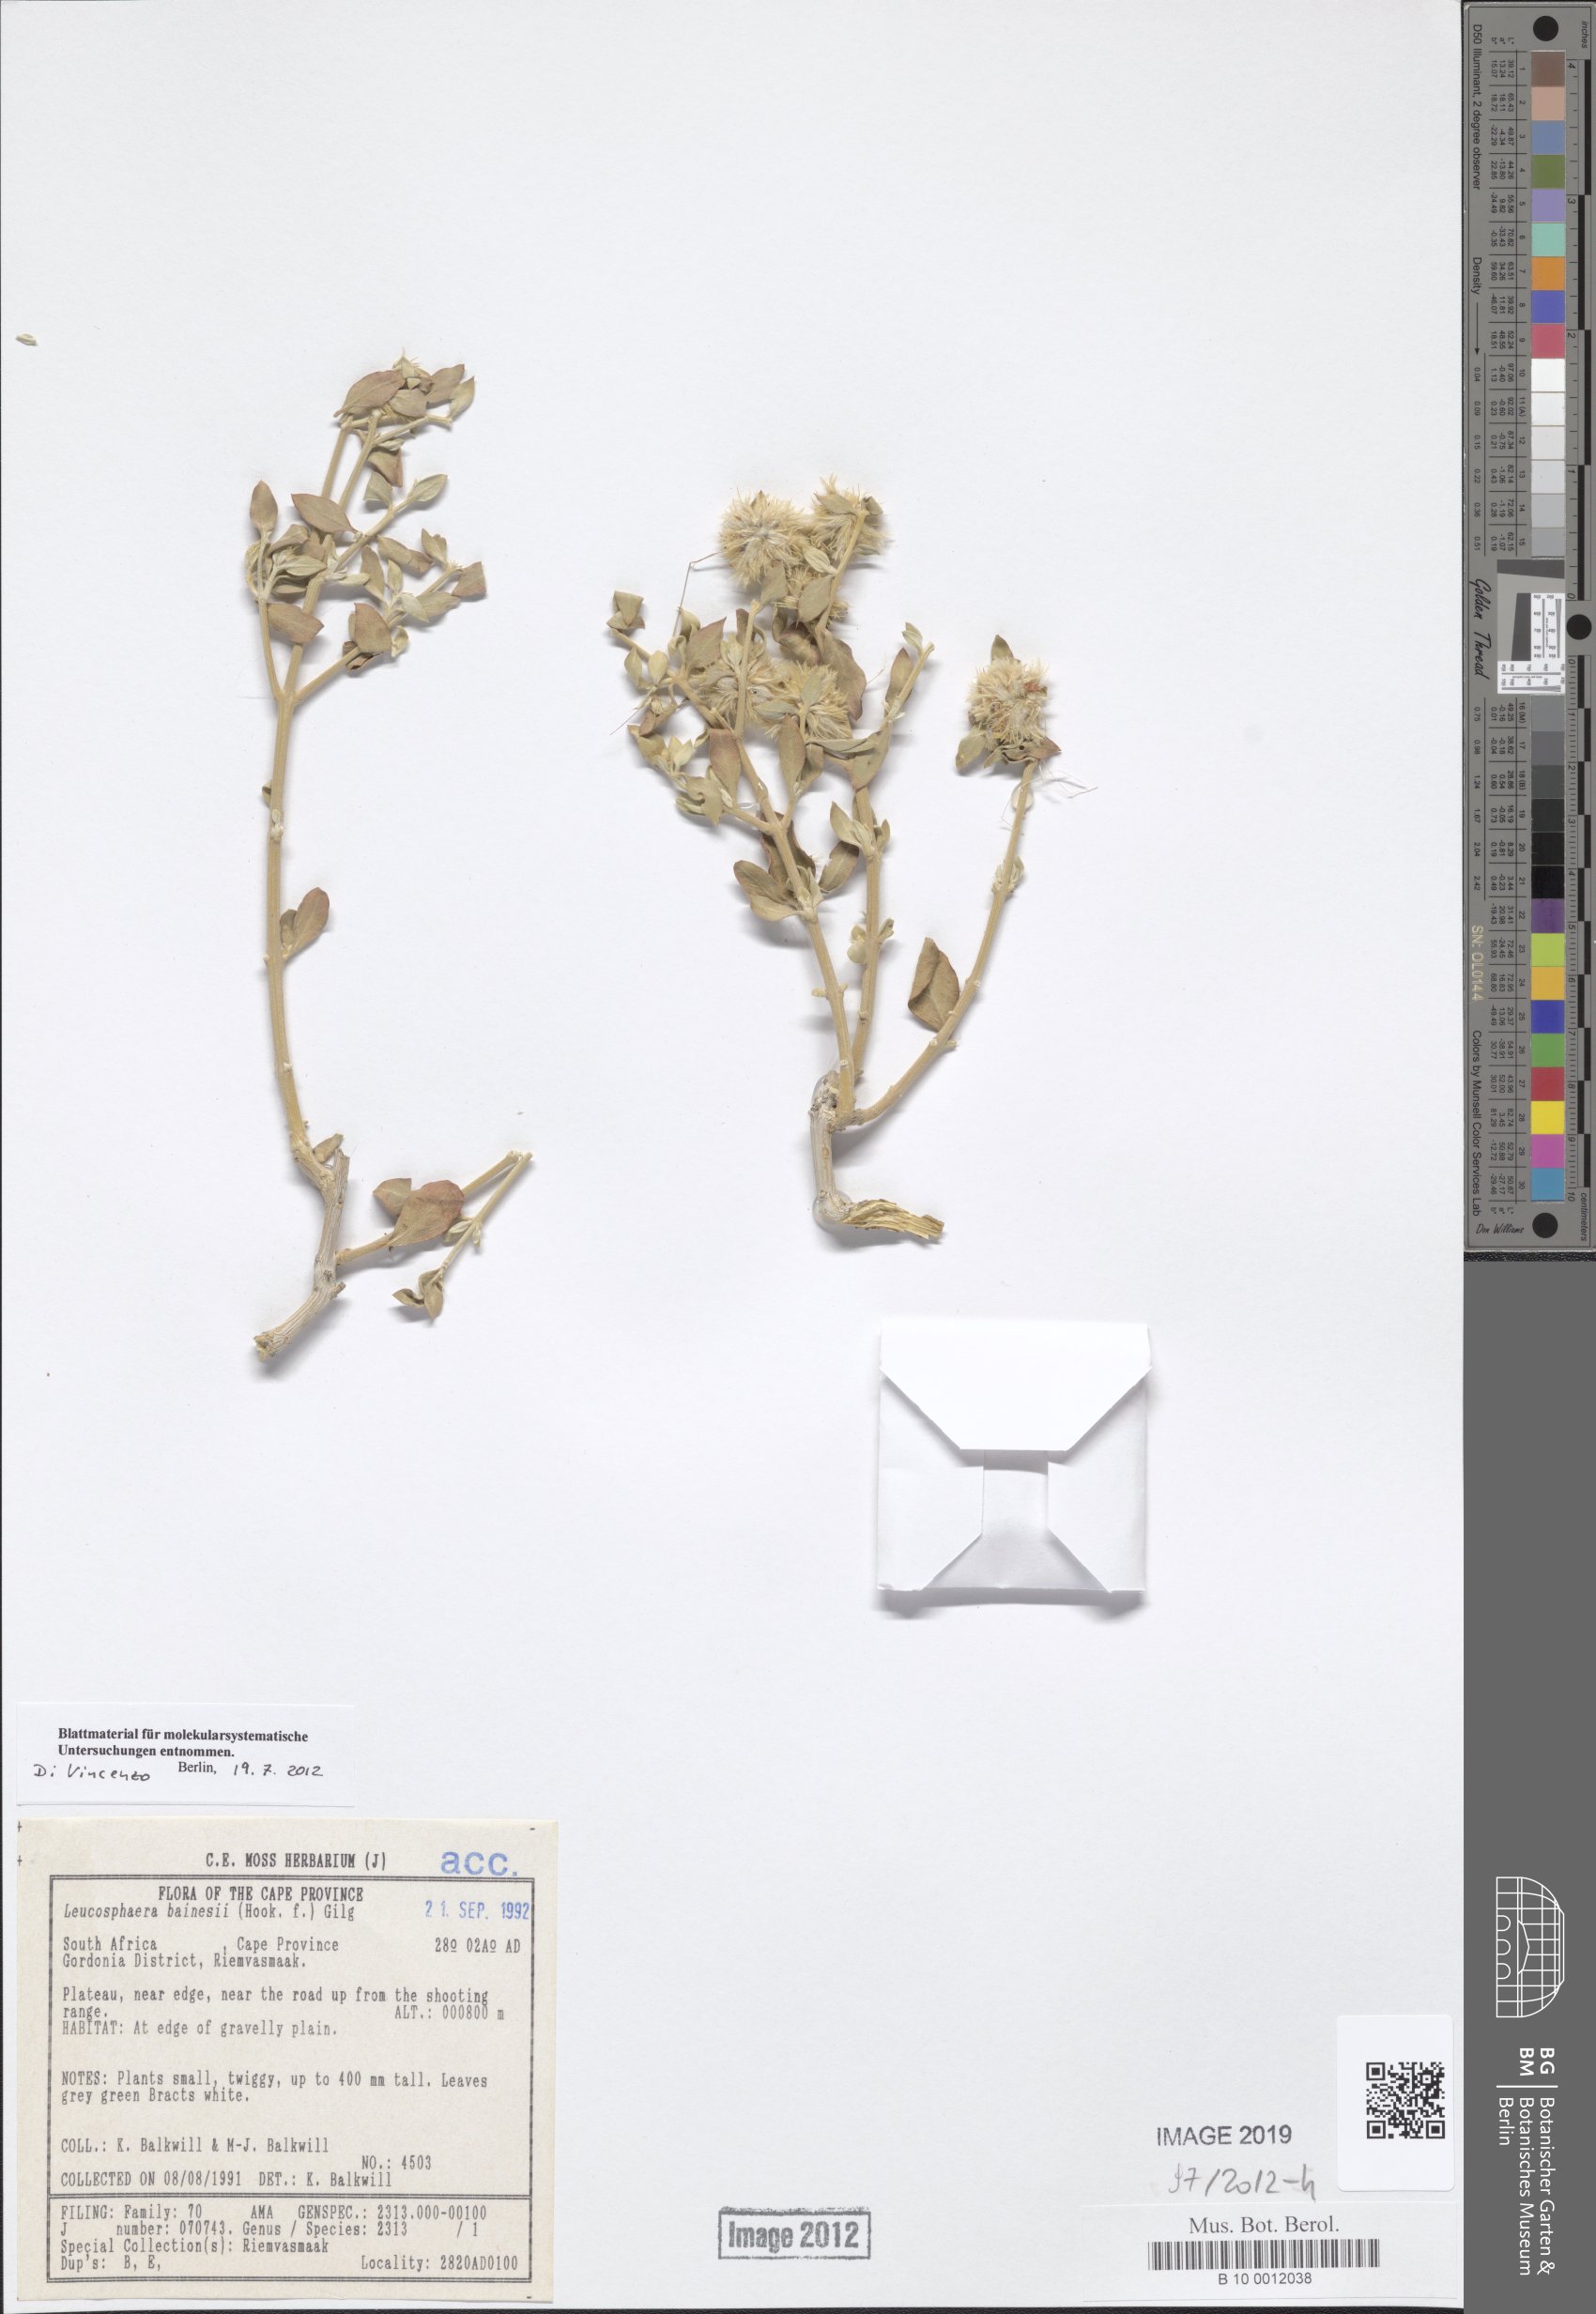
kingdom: Plantae
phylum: Tracheophyta
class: Magnoliopsida
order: Caryophyllales
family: Amaranthaceae
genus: Leucosphaera
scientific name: Leucosphaera bainesii
